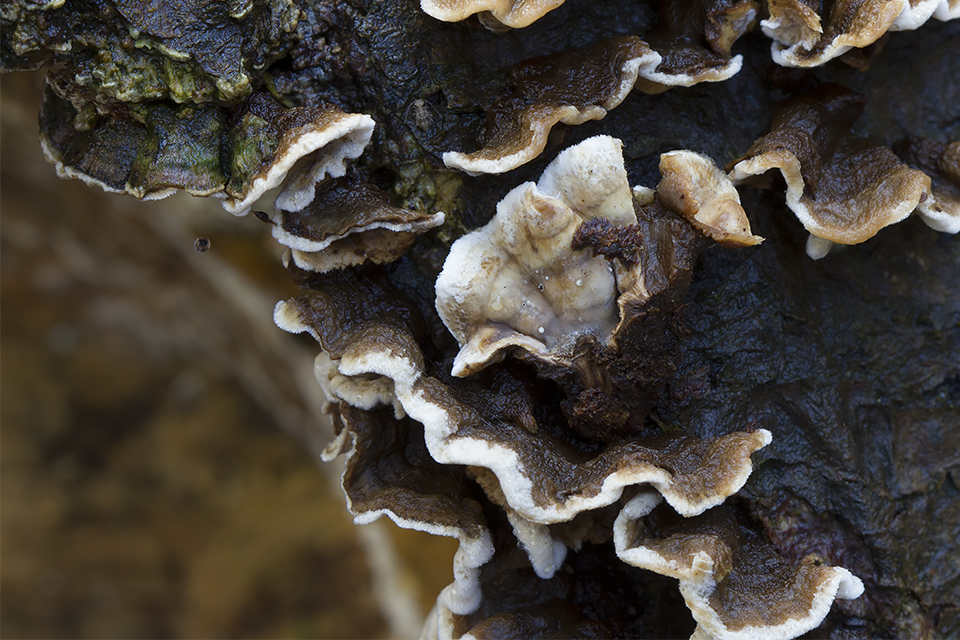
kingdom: Fungi
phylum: Basidiomycota
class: Agaricomycetes
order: Russulales
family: Hericiaceae
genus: Laxitextum
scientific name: Laxitextum bicolor
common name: tvefarvet filtskind
